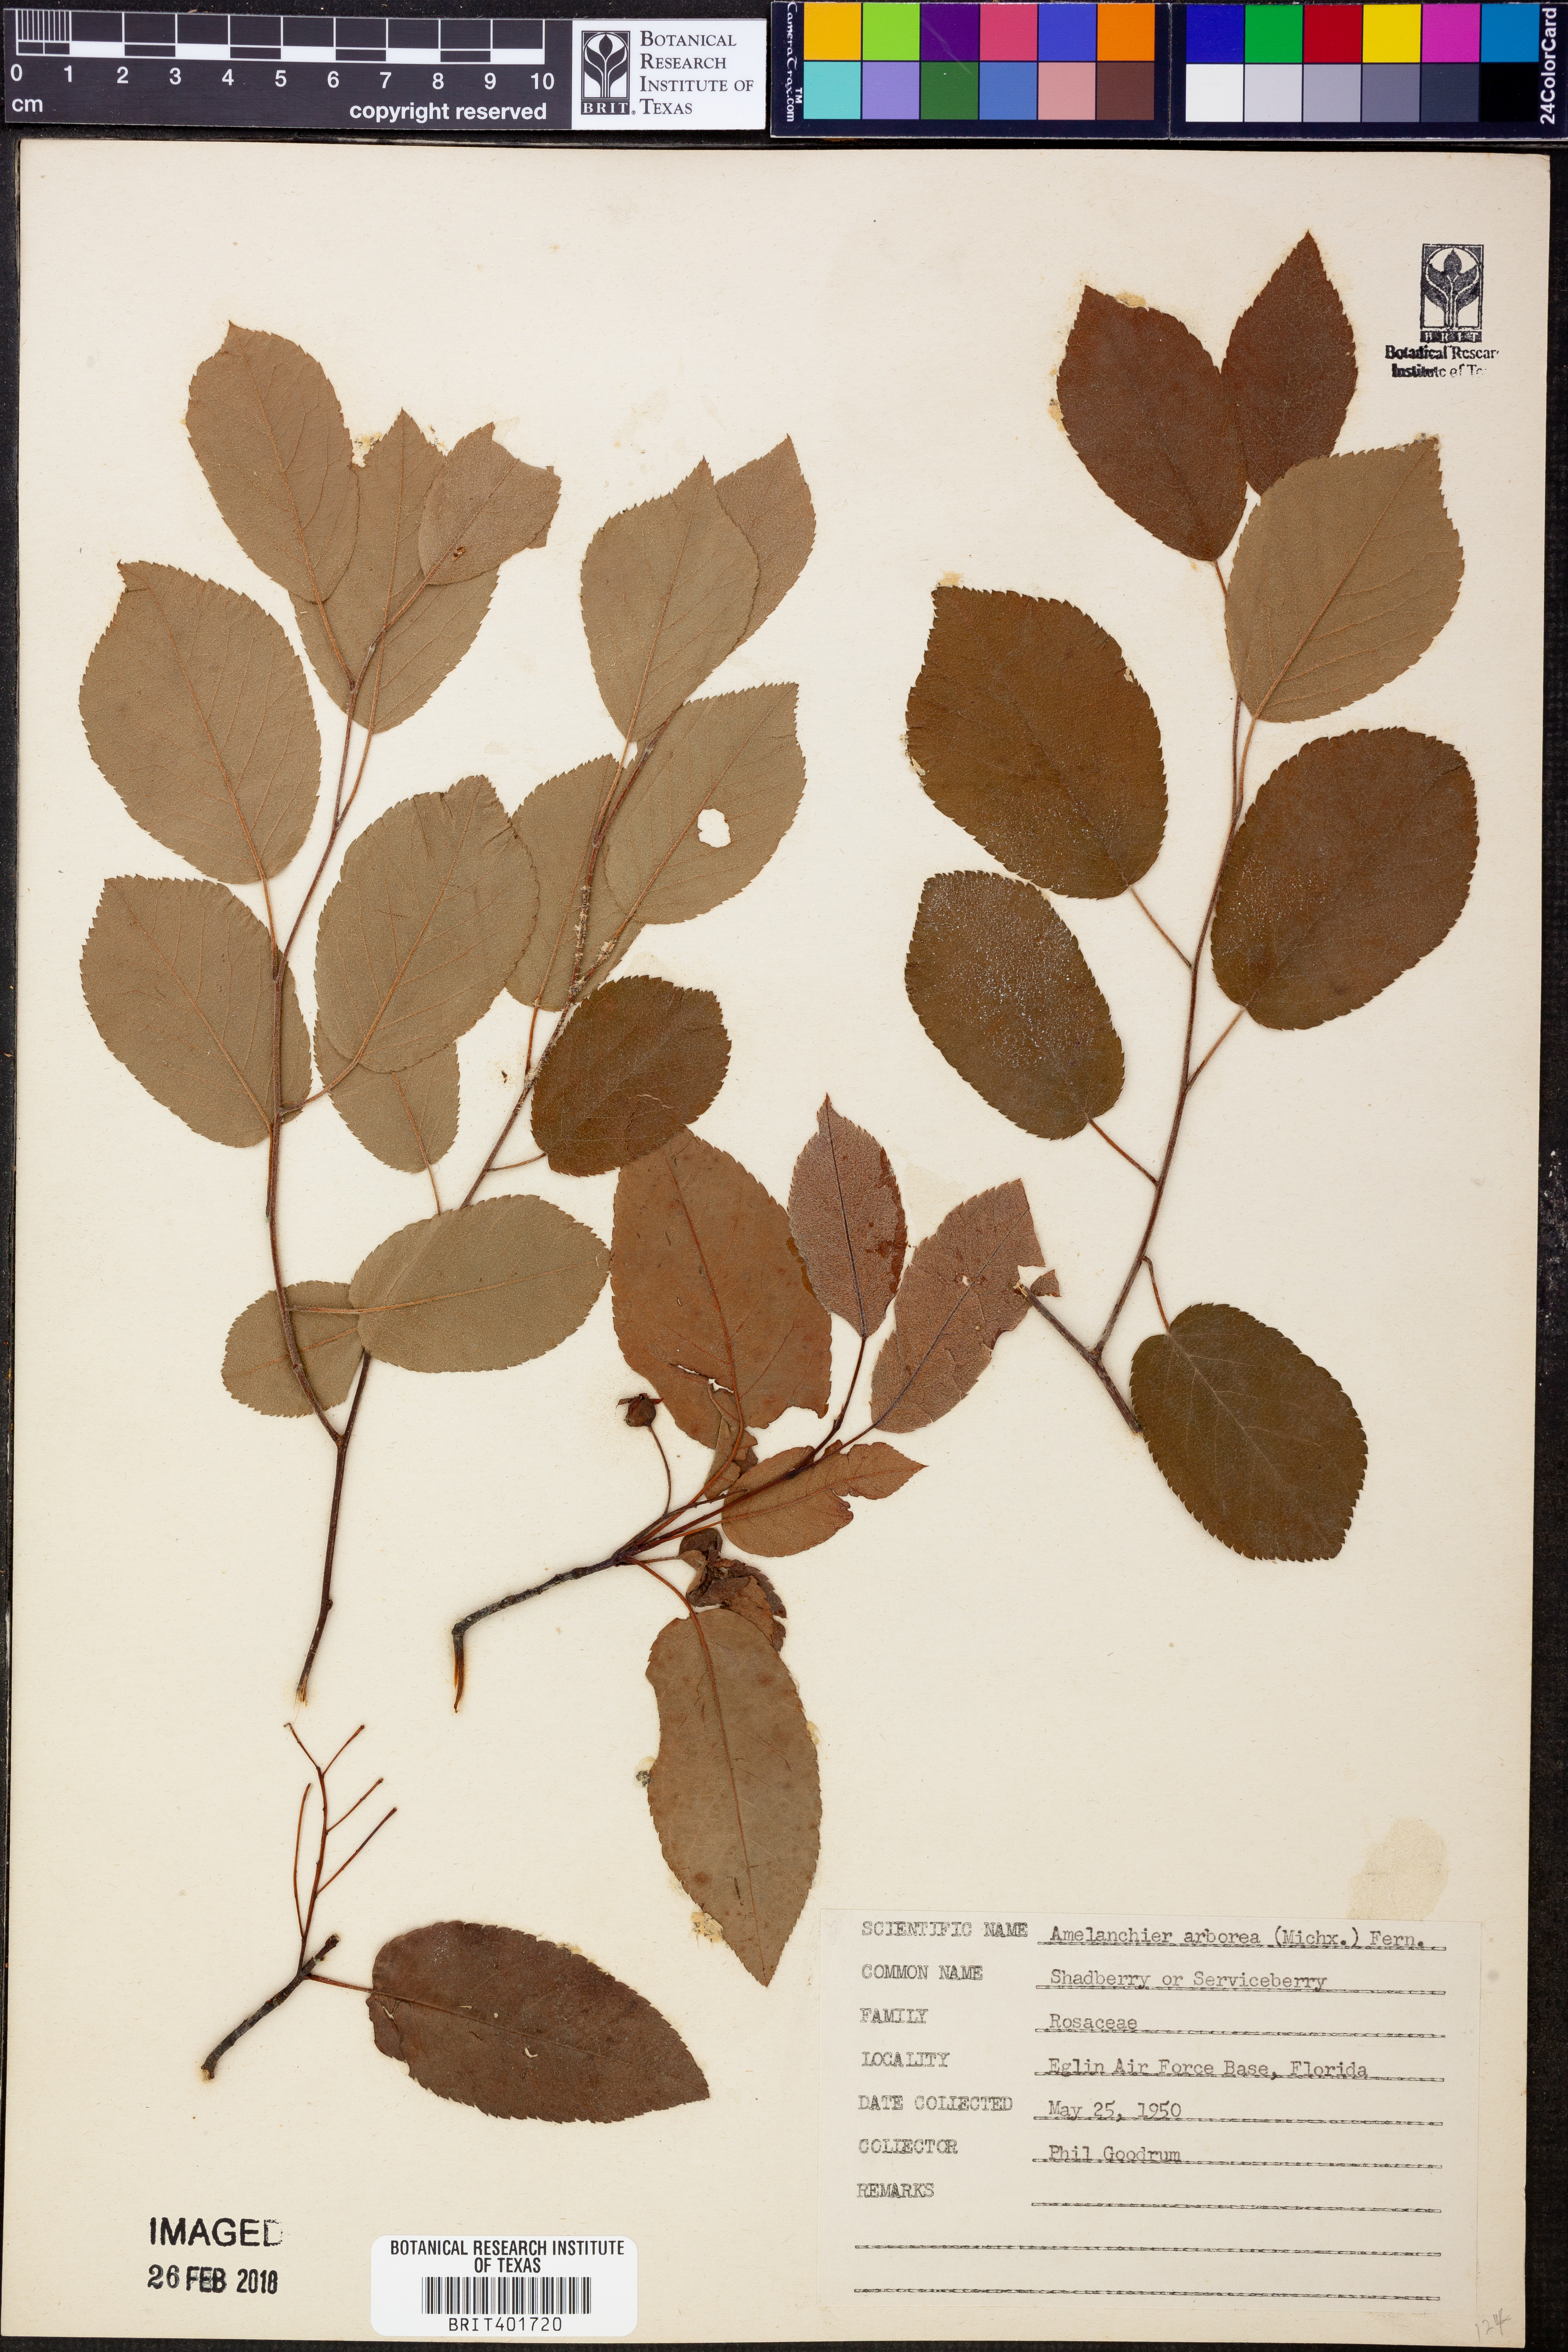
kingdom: Plantae
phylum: Tracheophyta
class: Magnoliopsida
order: Rosales
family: Rosaceae
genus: Amelanchier
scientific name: Amelanchier arborea
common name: Downy serviceberry
